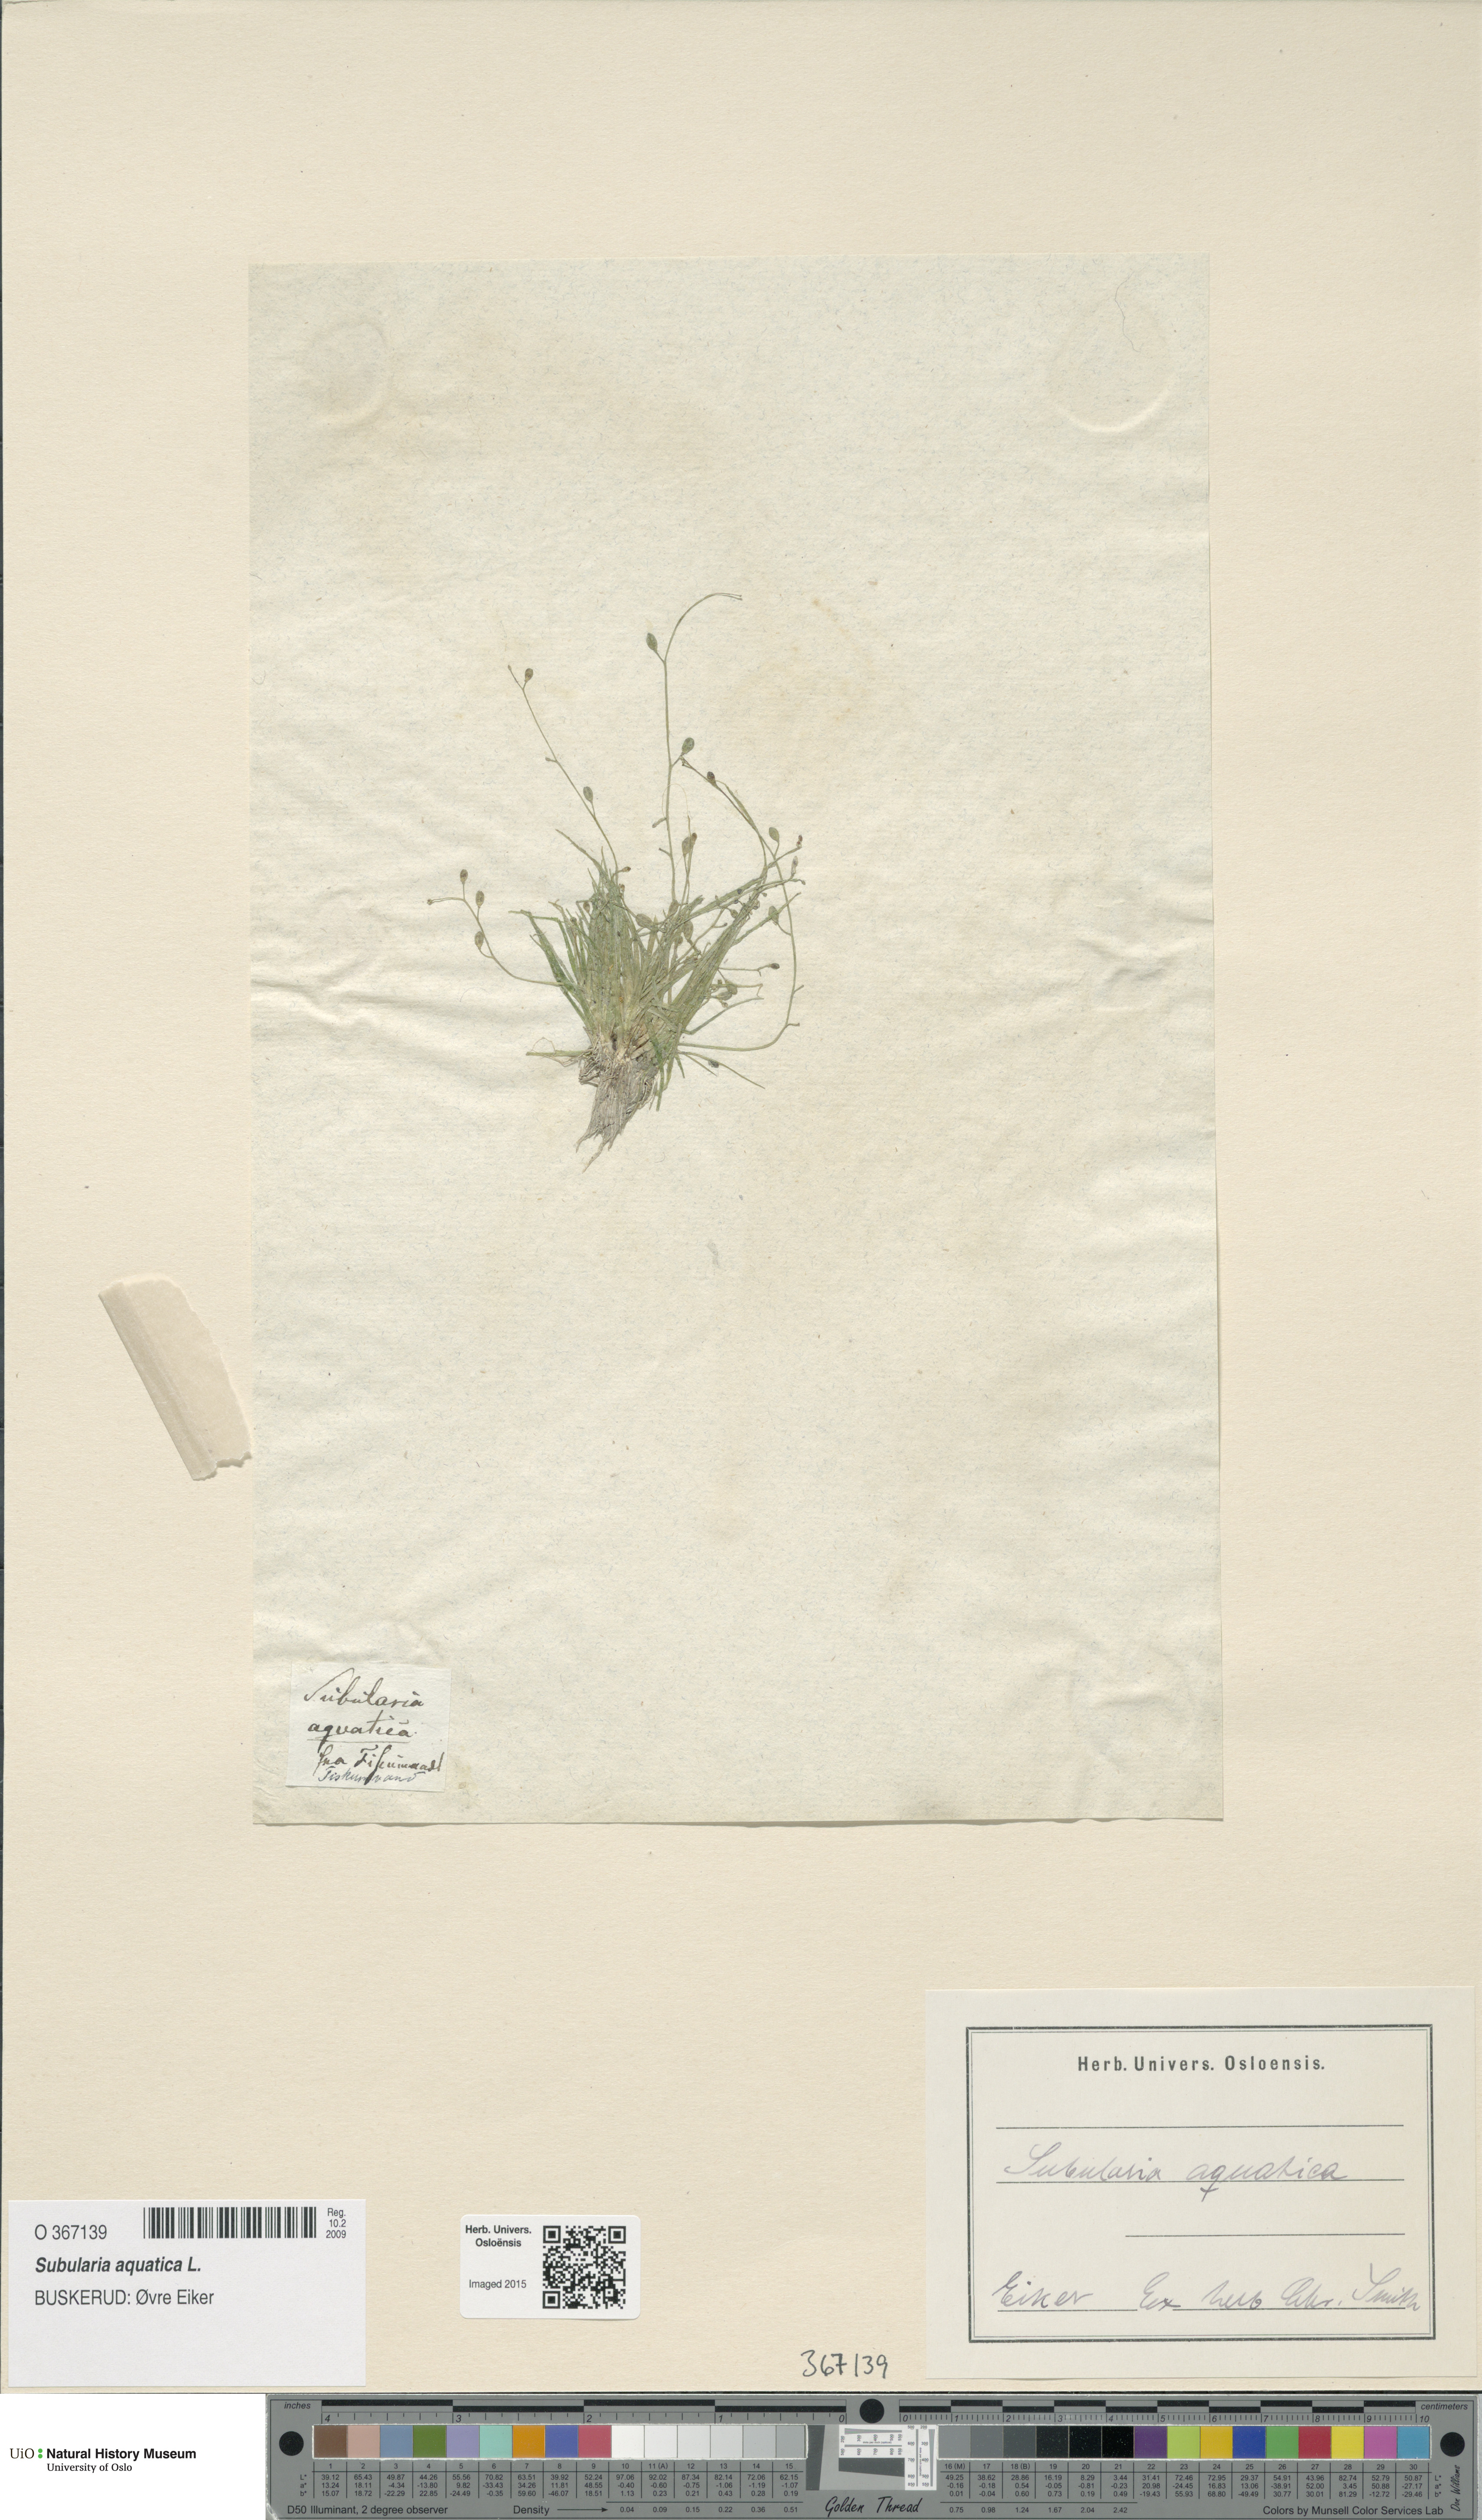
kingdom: Plantae
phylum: Tracheophyta
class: Magnoliopsida
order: Brassicales
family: Brassicaceae
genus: Subularia
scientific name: Subularia aquatica
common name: Awlwort
